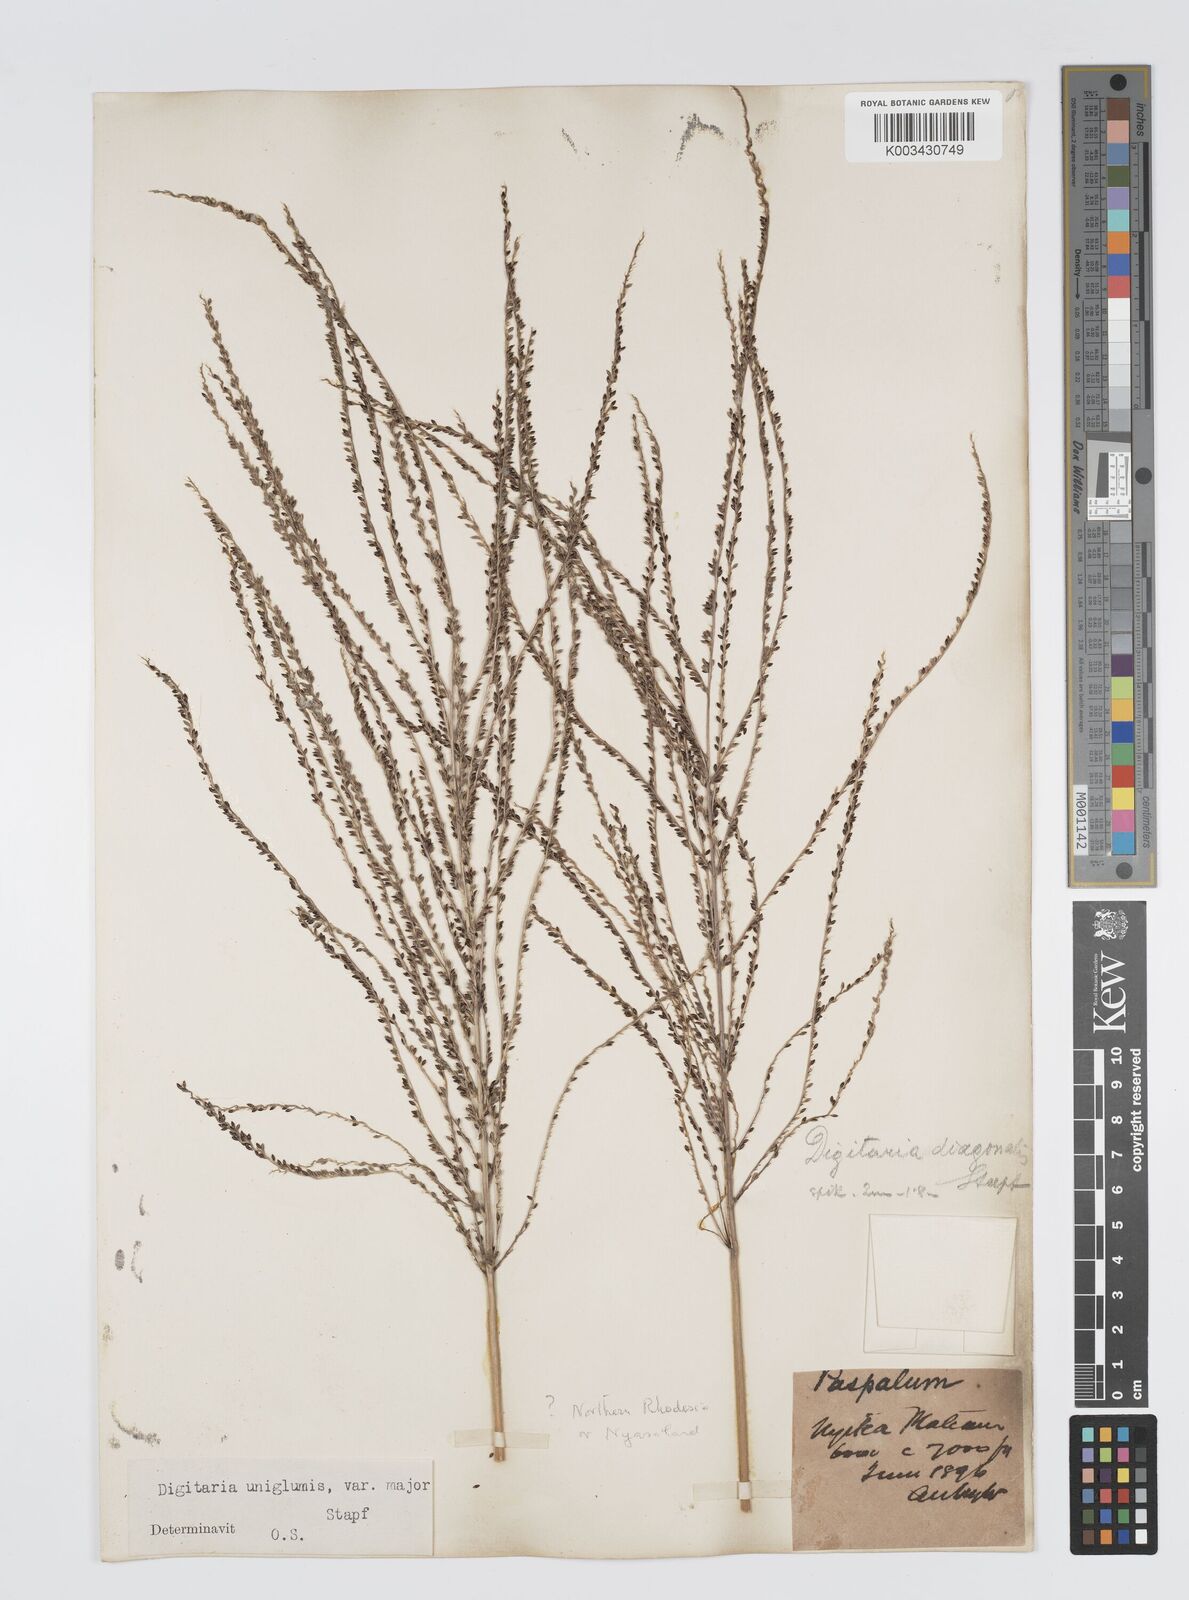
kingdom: Plantae
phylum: Tracheophyta
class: Liliopsida
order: Poales
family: Poaceae
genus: Digitaria
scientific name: Digitaria diagonalis
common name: Brown-seed finger grass
